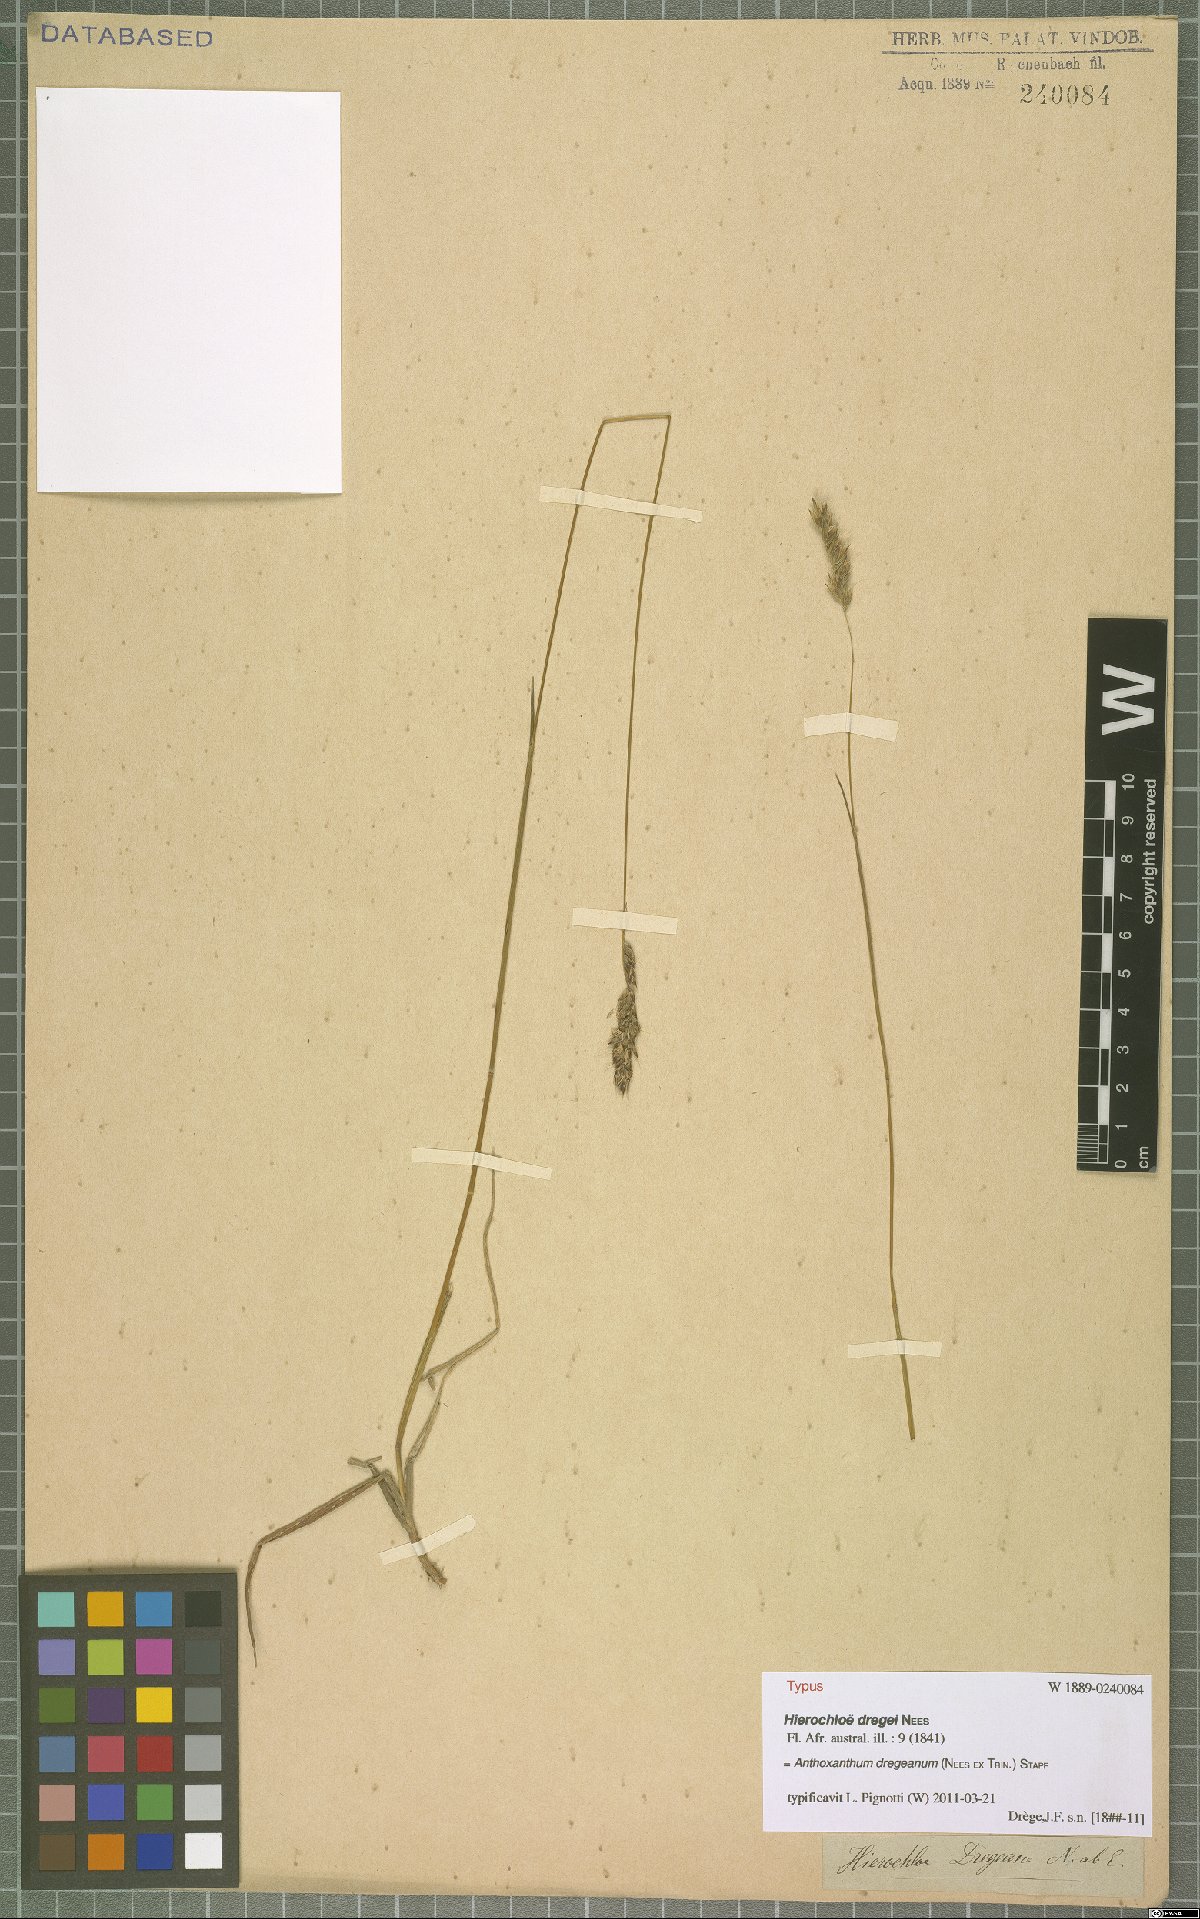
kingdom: Plantae
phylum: Tracheophyta
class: Liliopsida
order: Poales
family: Poaceae
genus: Anthoxanthum
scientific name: Anthoxanthum dregeanum
